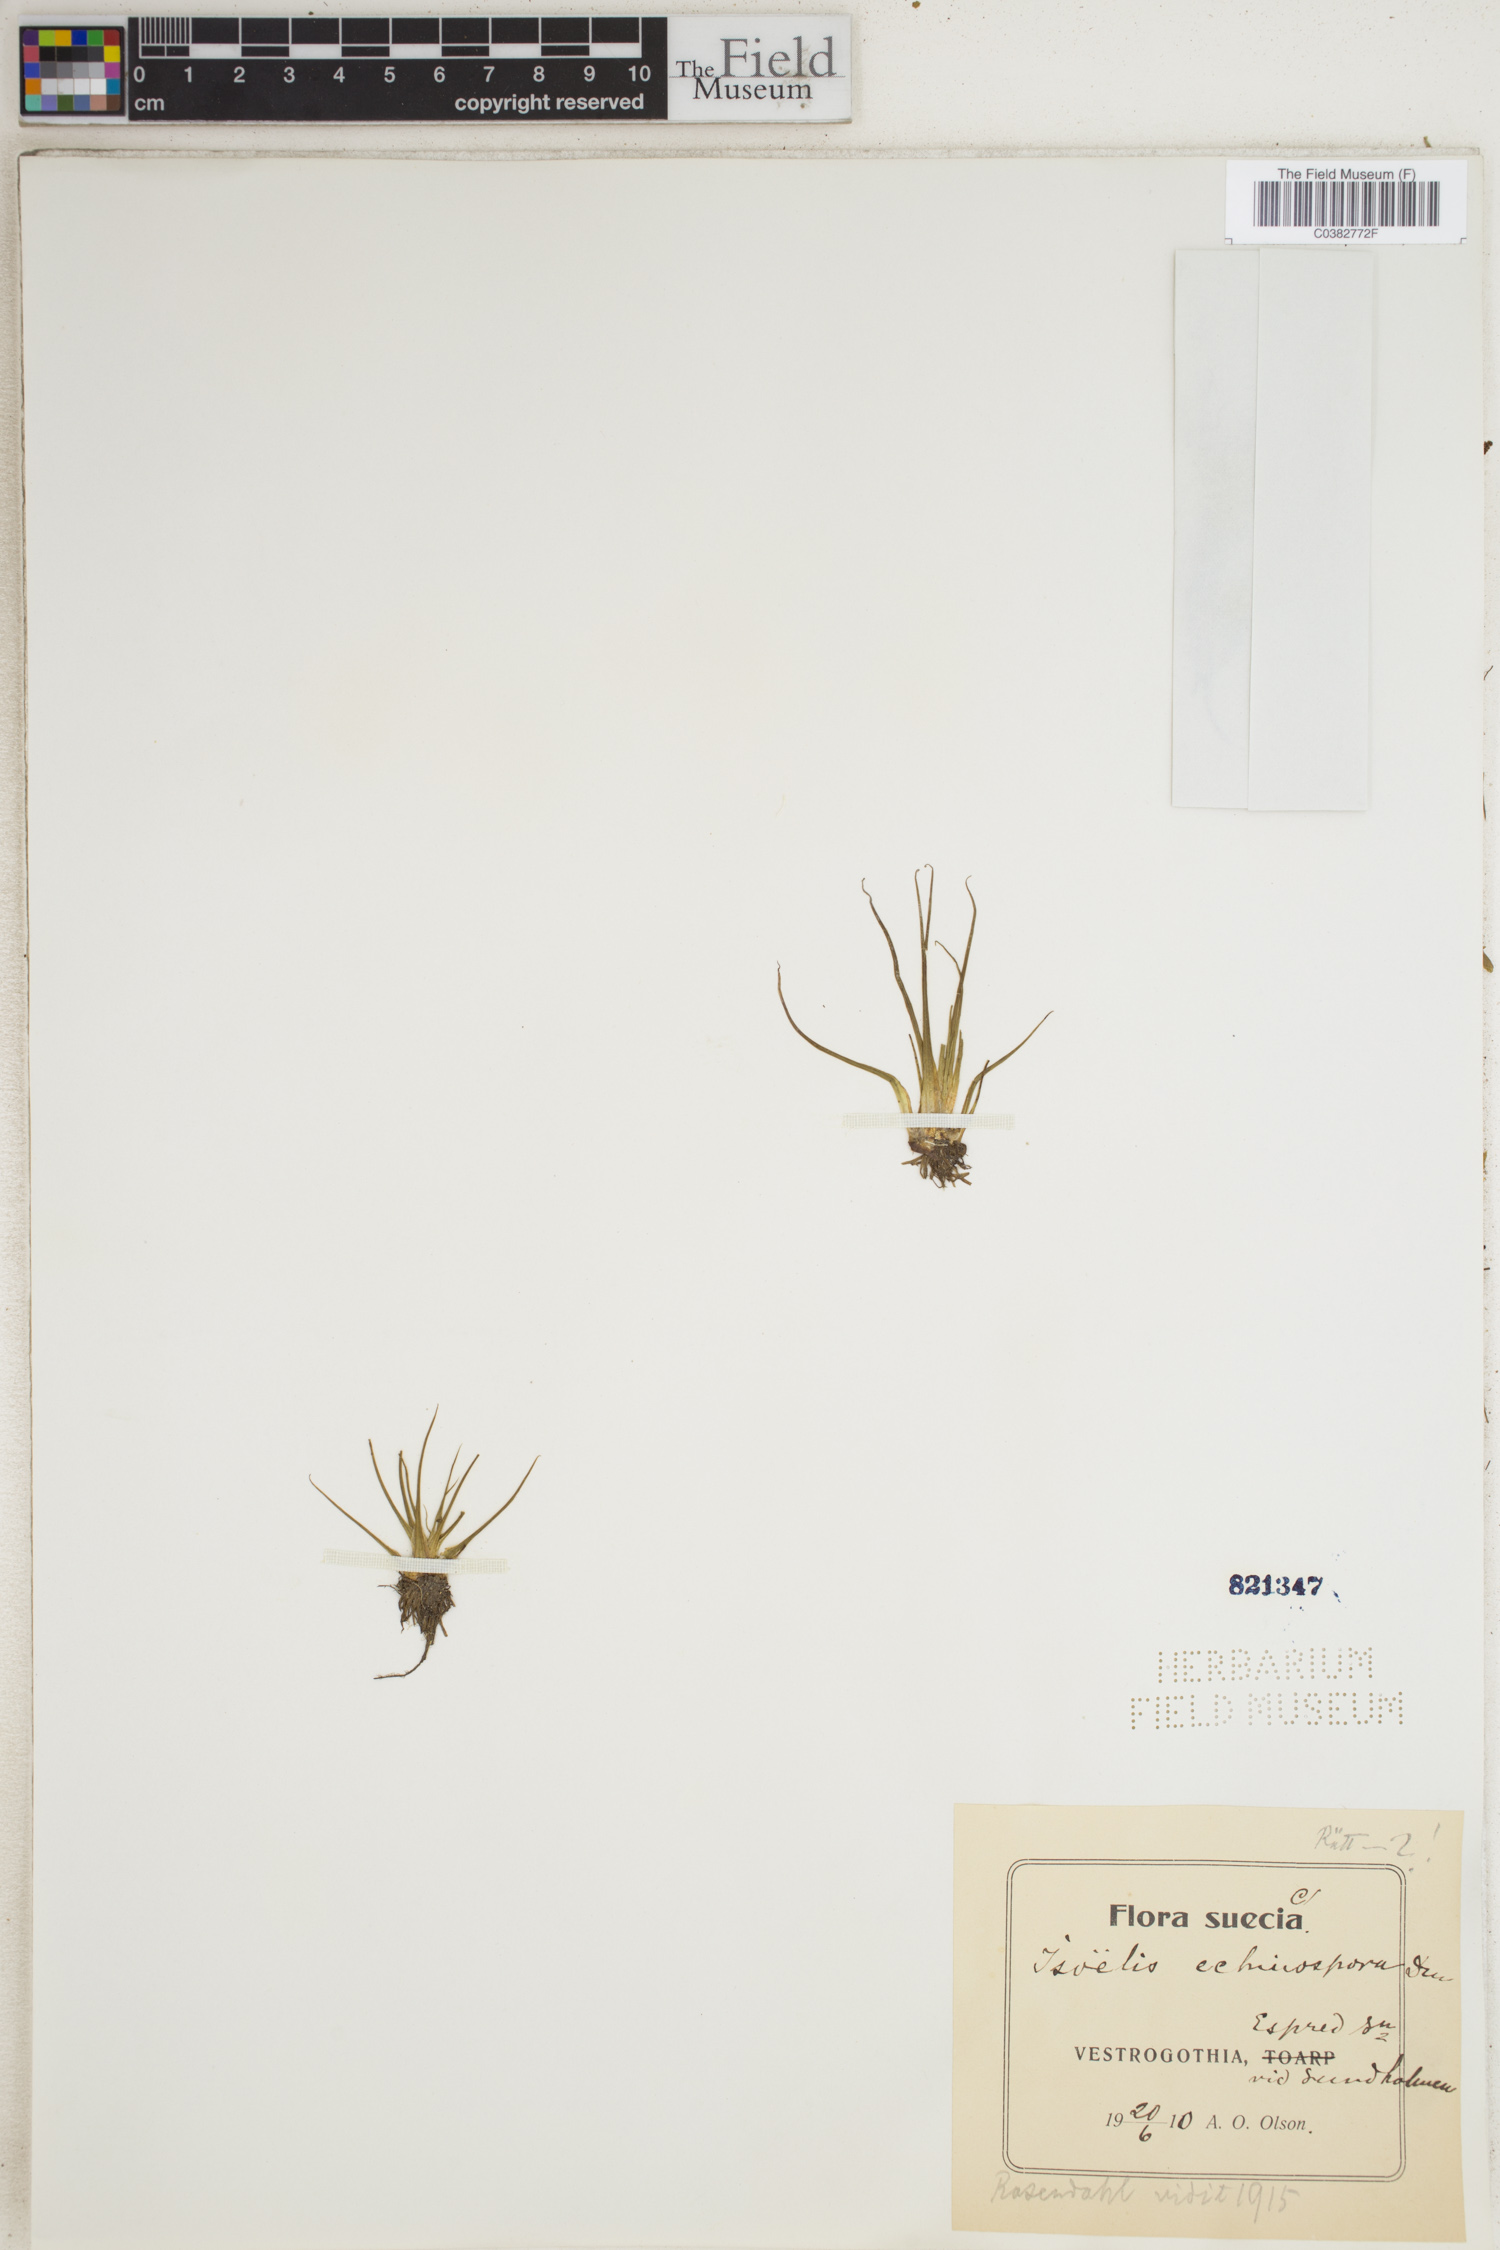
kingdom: Plantae
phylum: Tracheophyta
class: Lycopodiopsida
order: Isoetales
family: Isoetaceae
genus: Isoetes
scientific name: Isoetes echinospora
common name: Spring quillwort
